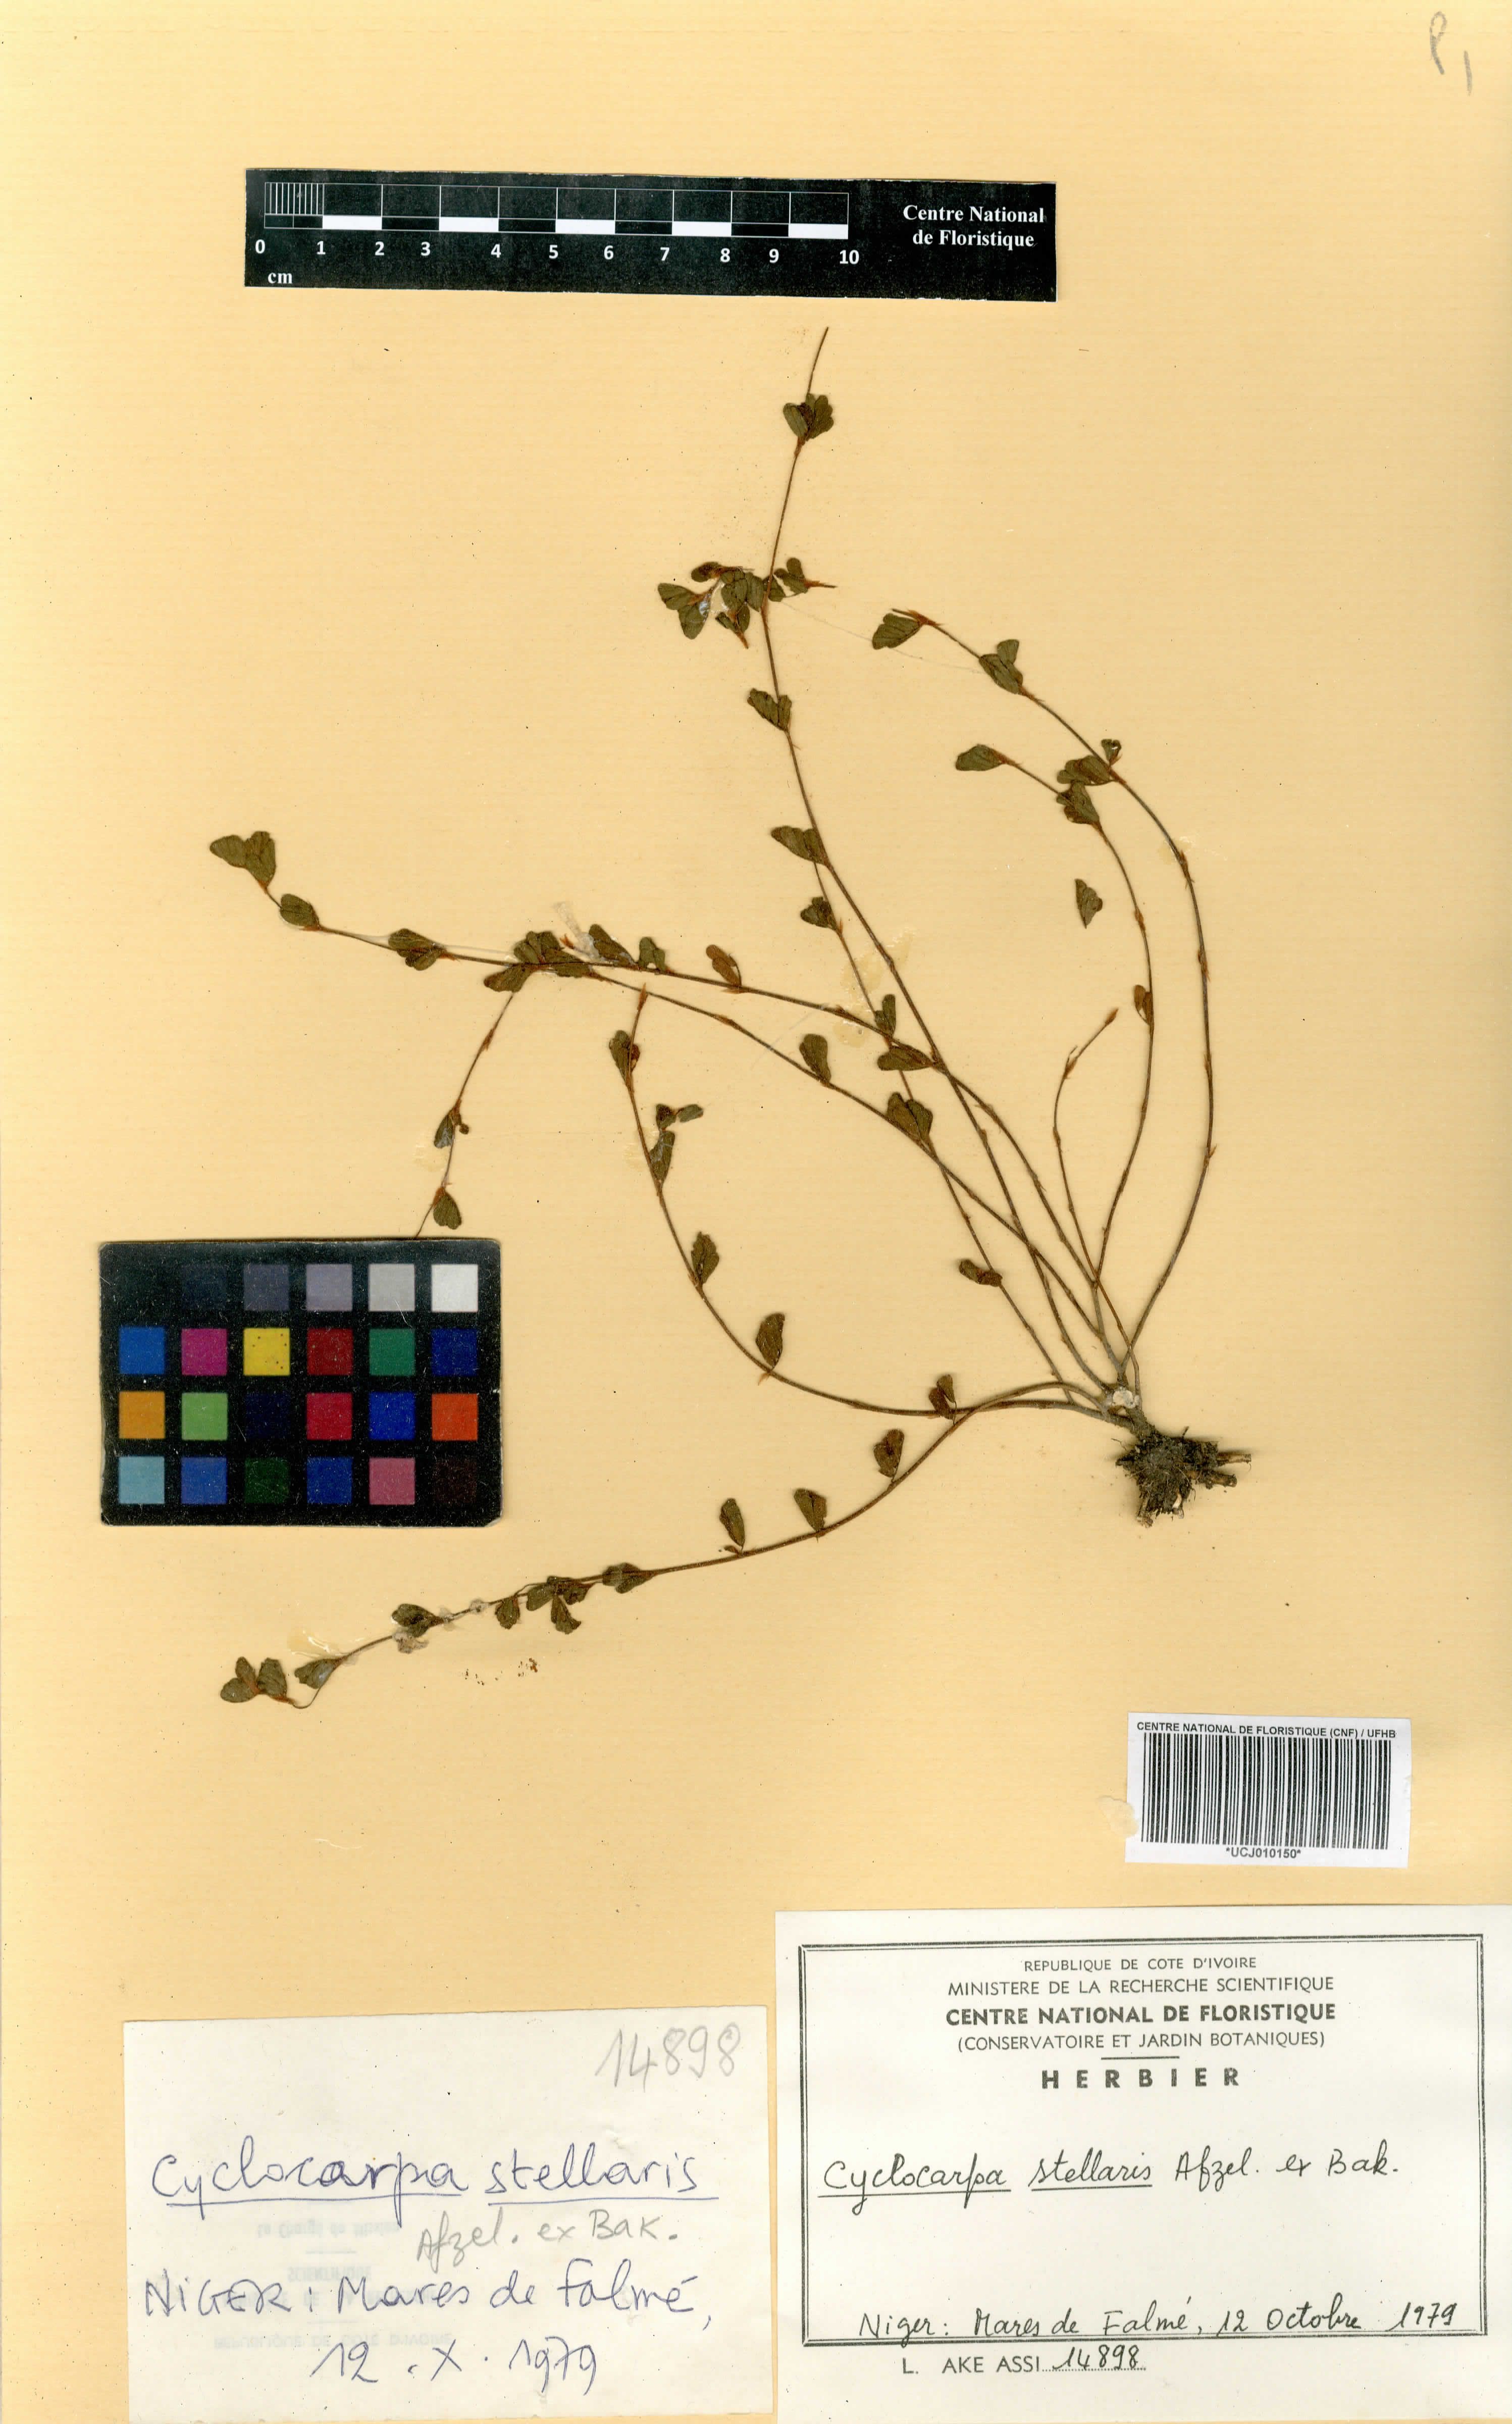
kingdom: Plantae
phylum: Tracheophyta
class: Magnoliopsida
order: Fabales
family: Fabaceae
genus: Cyclocarpa
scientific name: Cyclocarpa stellaris
